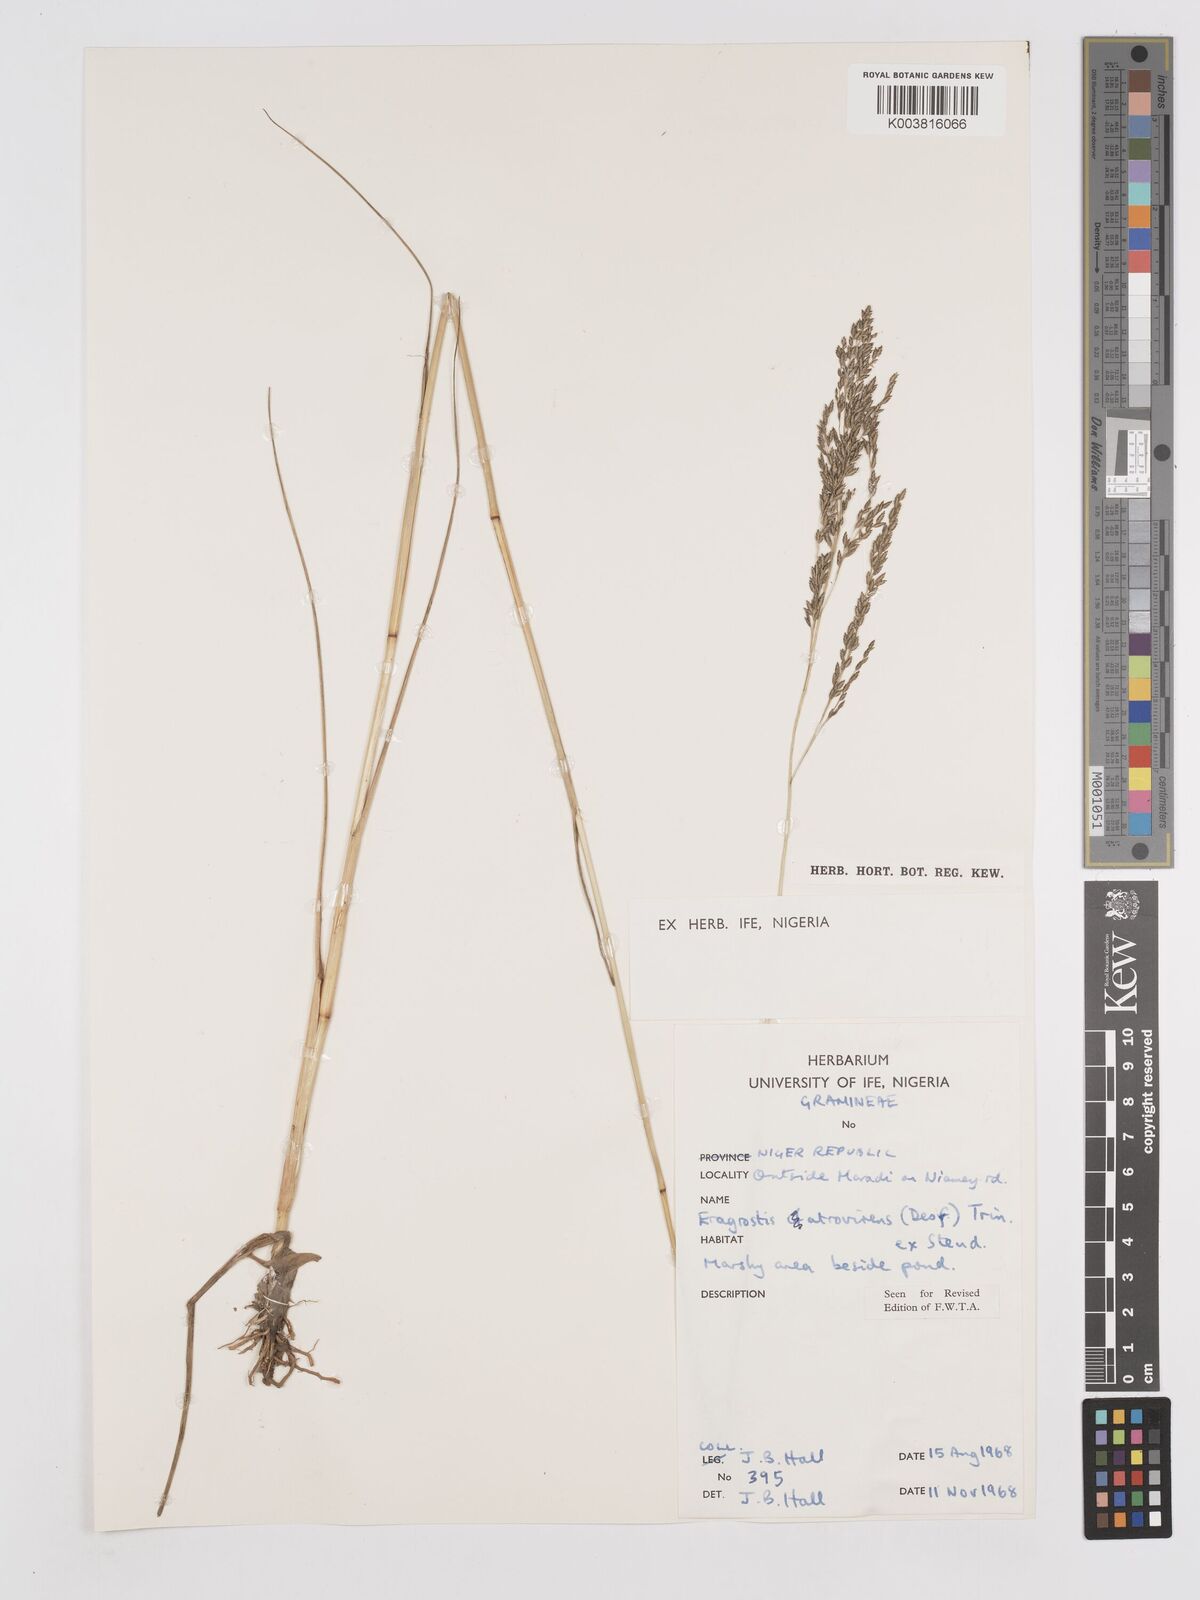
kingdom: Plantae
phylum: Tracheophyta
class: Liliopsida
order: Poales
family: Poaceae
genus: Eragrostis
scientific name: Eragrostis atrovirens
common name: Thalia lovegrass
